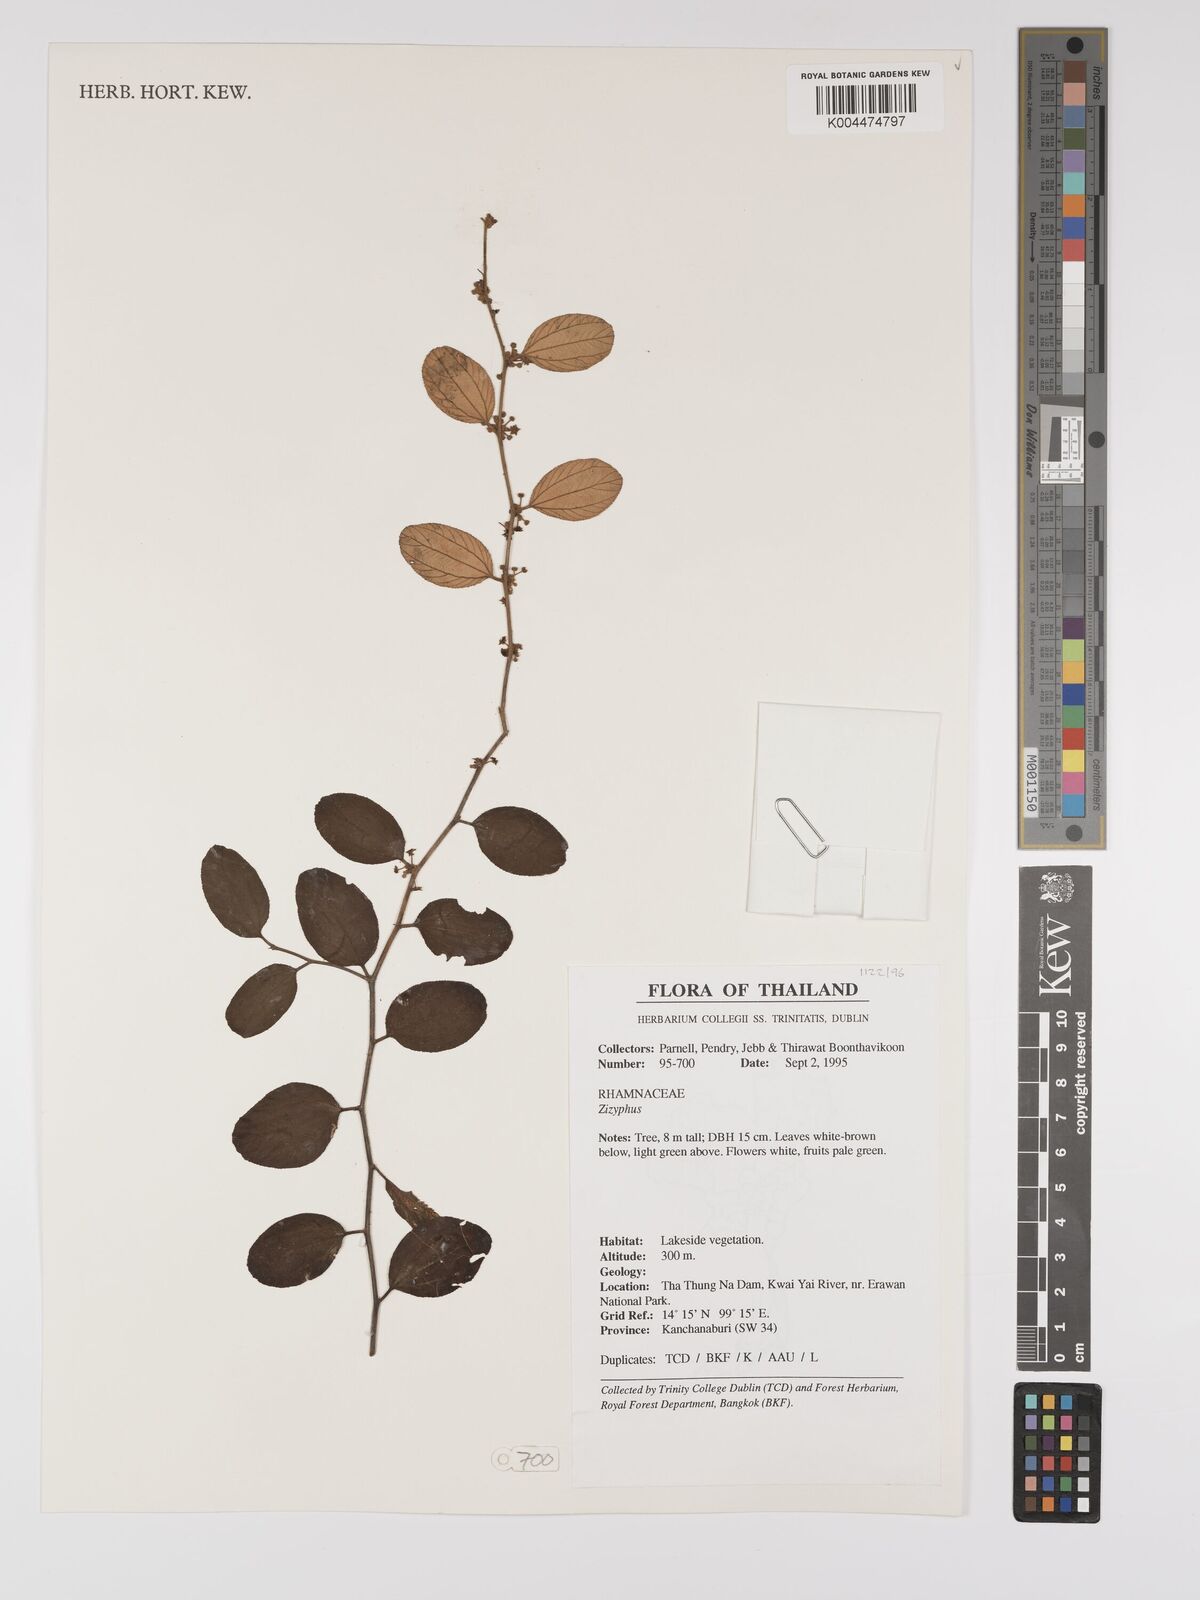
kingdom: Plantae
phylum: Tracheophyta
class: Magnoliopsida
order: Rosales
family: Rhamnaceae
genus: Ziziphus
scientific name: Ziziphus mauritiana
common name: Indian jujube
